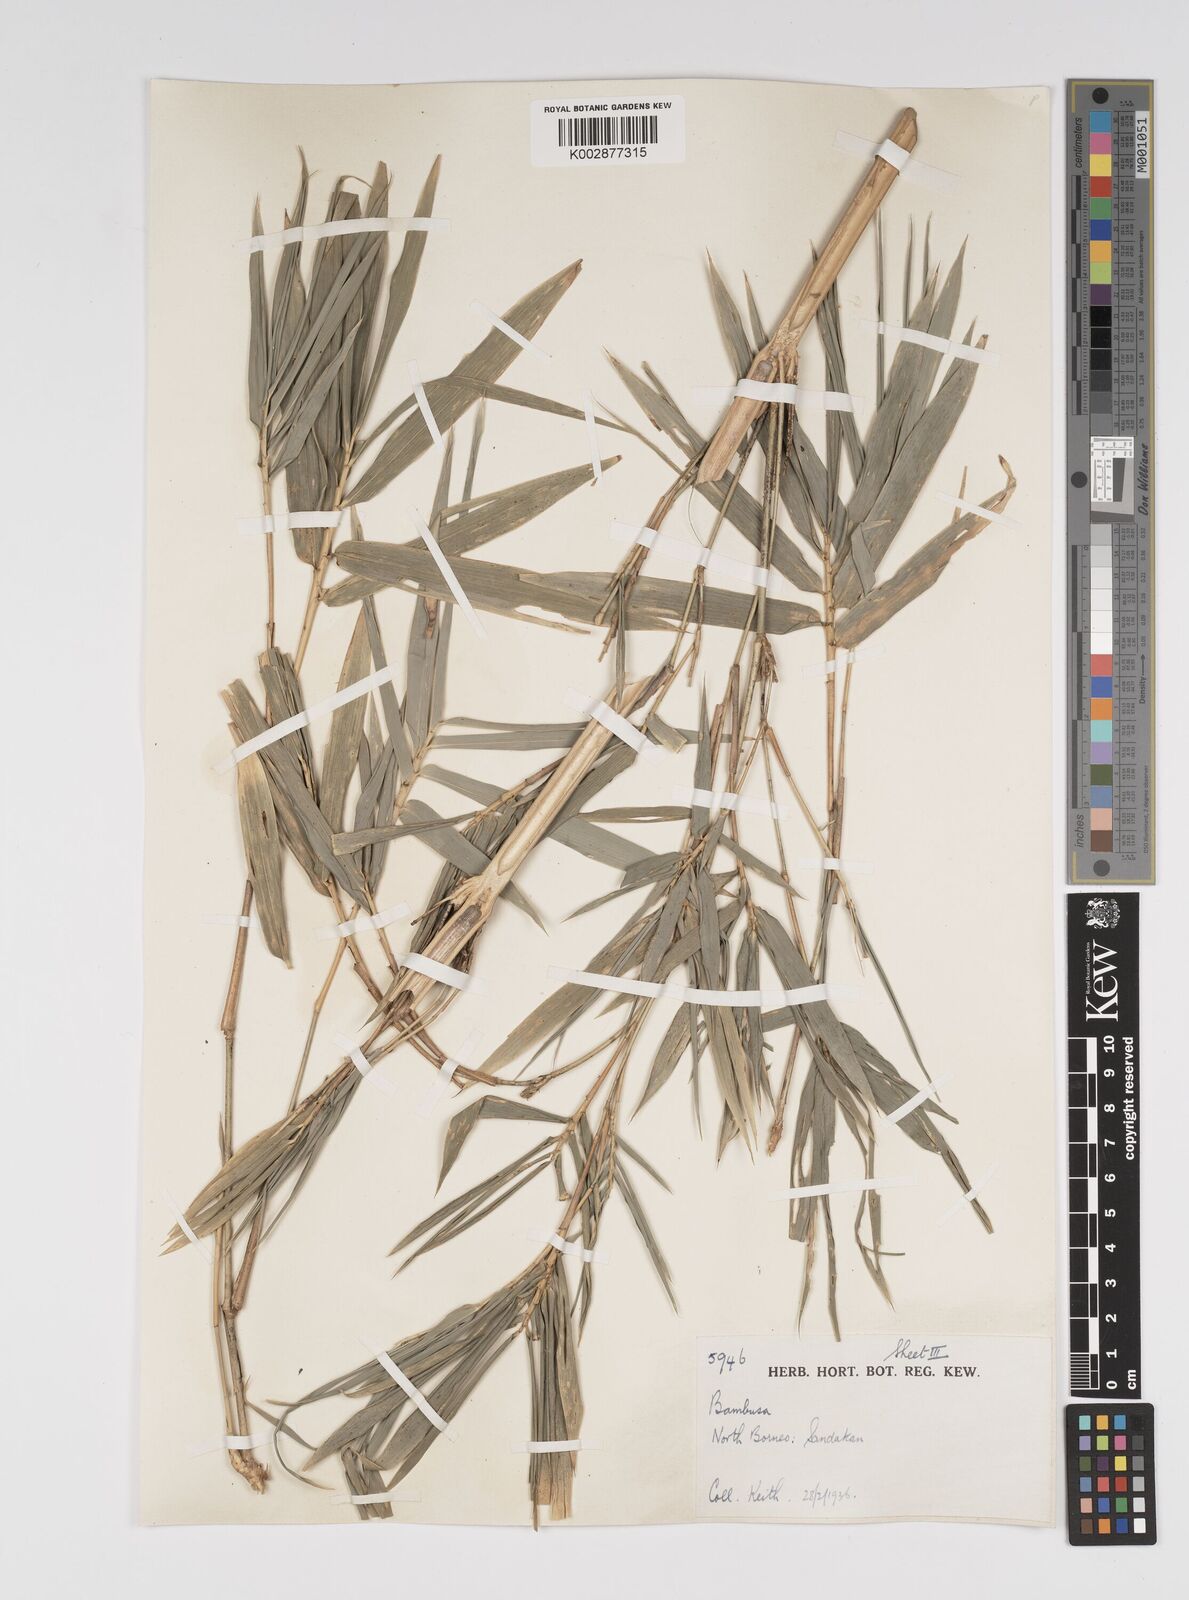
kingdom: Plantae
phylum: Tracheophyta
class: Liliopsida
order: Poales
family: Poaceae
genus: Bambusa
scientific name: Bambusa multiplex
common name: Hedge bamboo
